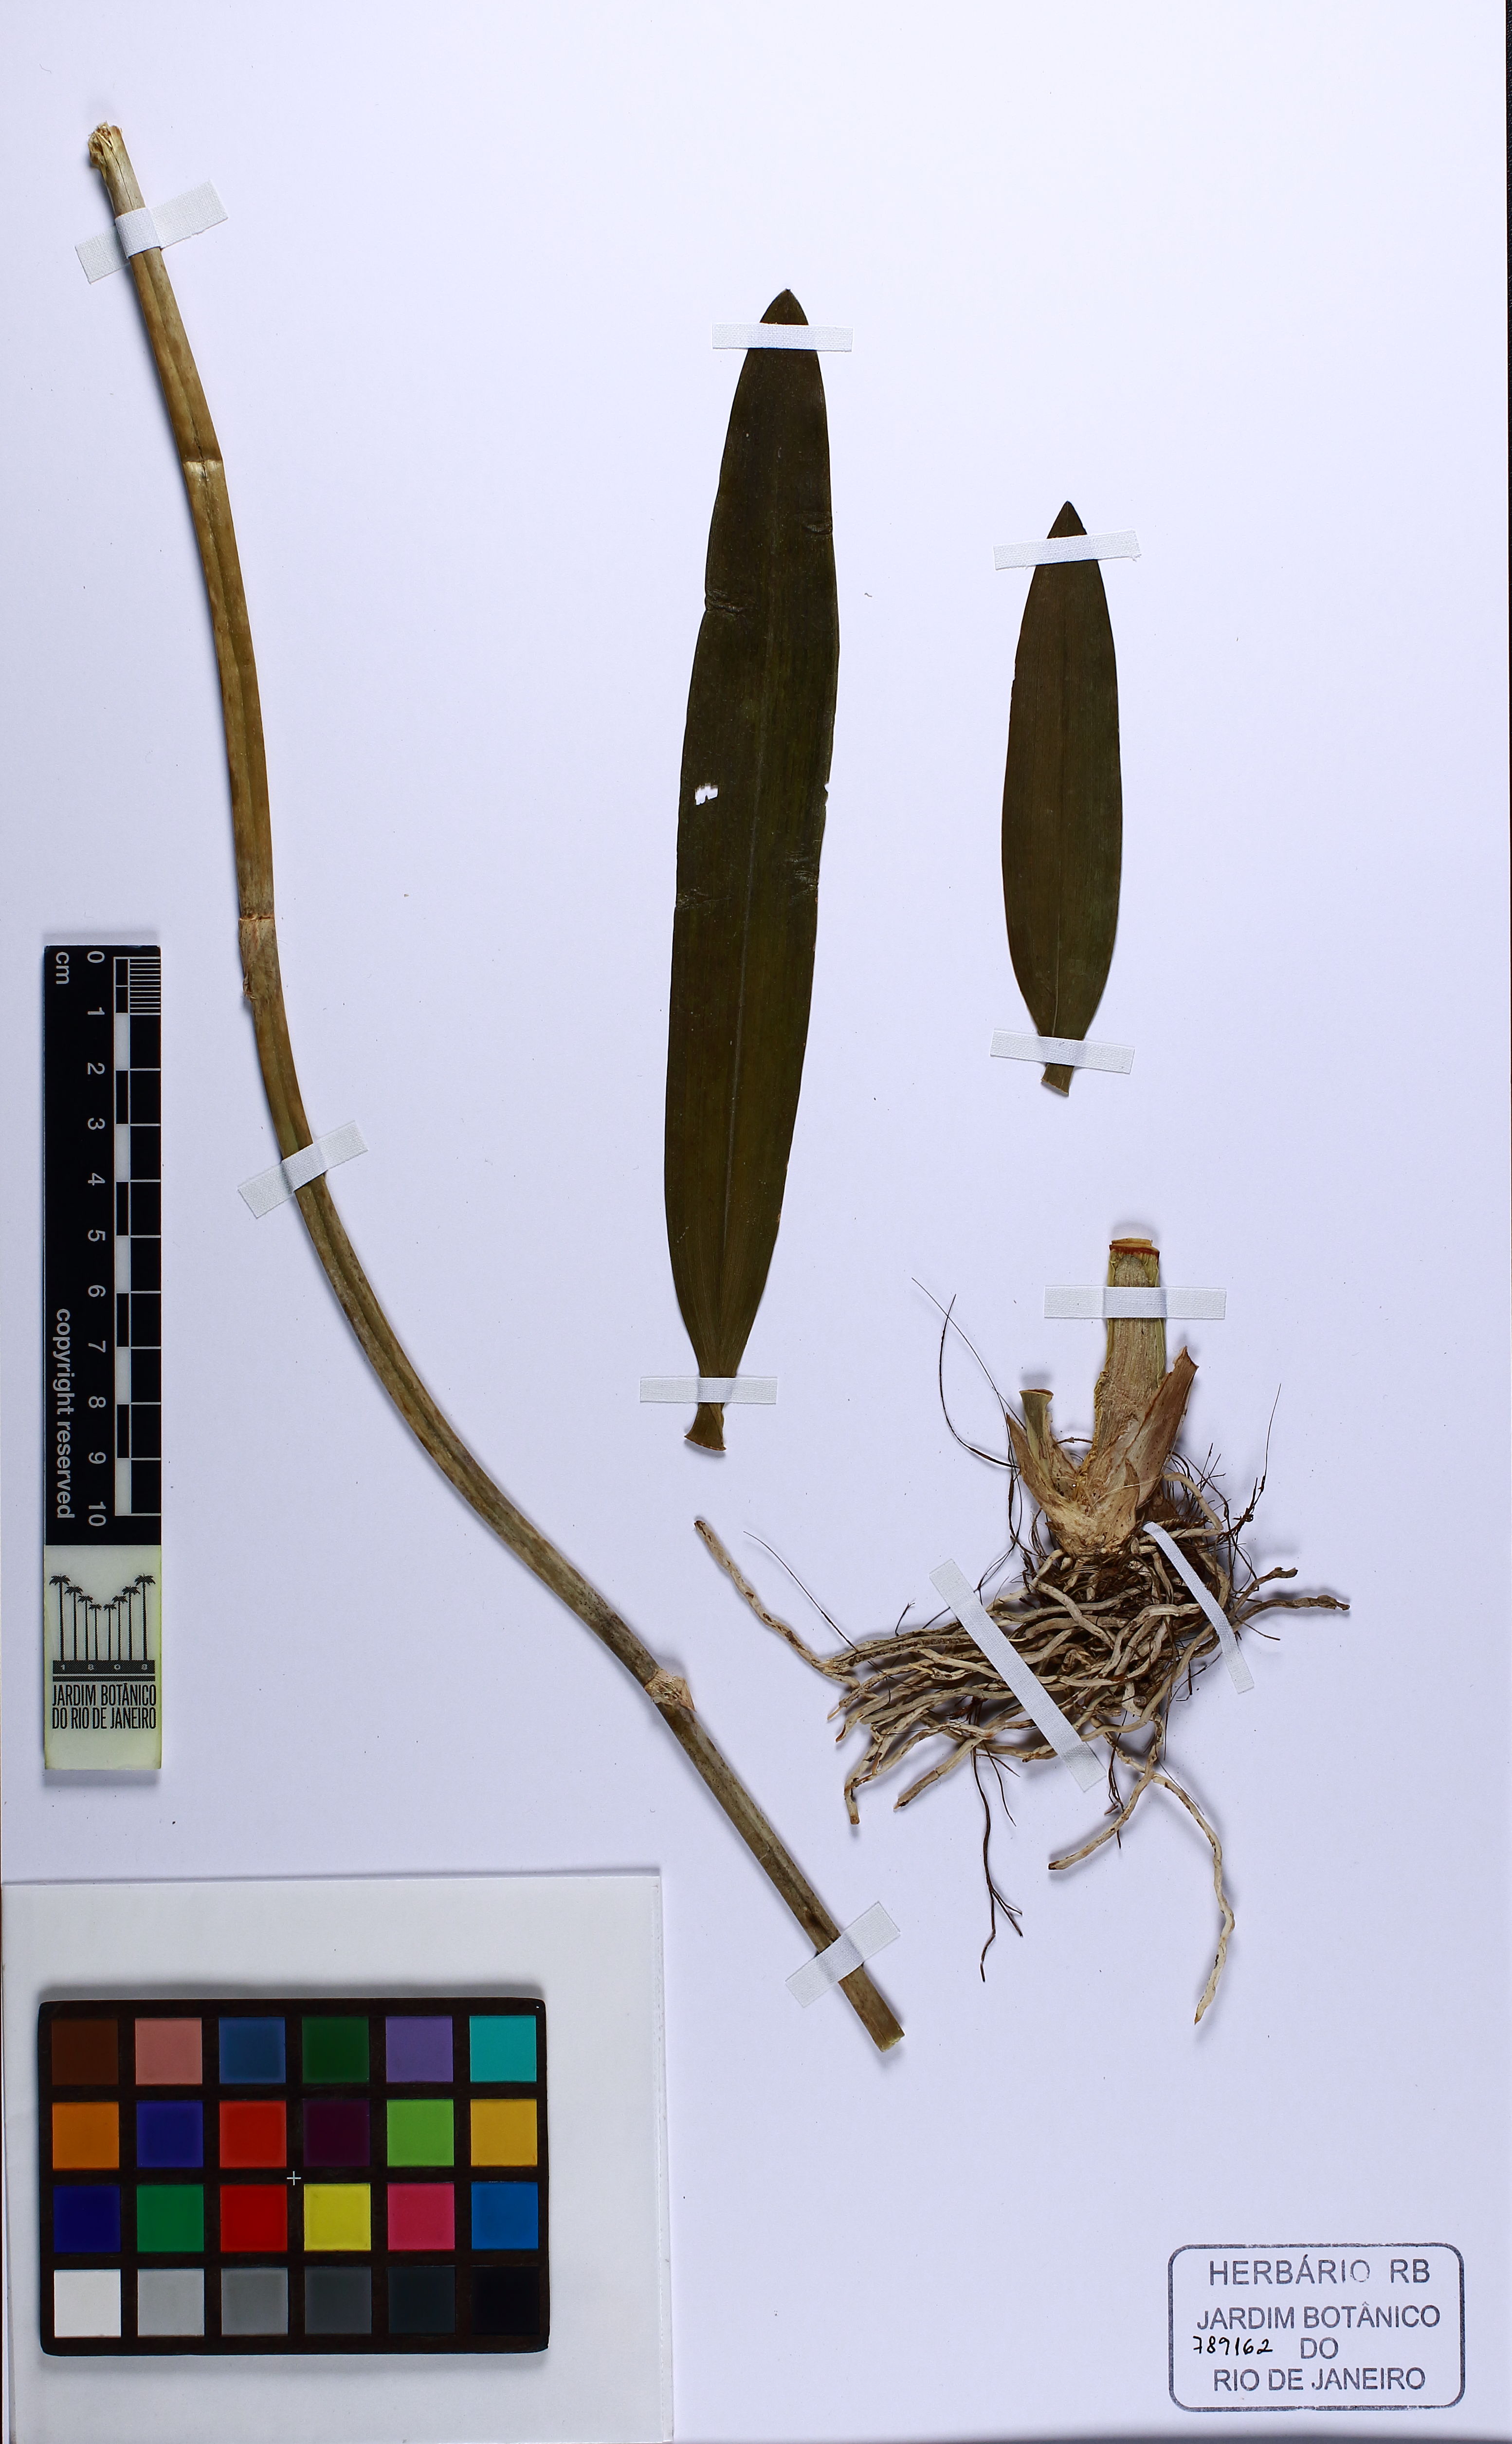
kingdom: Plantae
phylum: Tracheophyta
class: Liliopsida
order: Asparagales
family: Orchidaceae
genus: Gomesa
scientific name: Gomesa varicosa
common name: Dancing ladies
